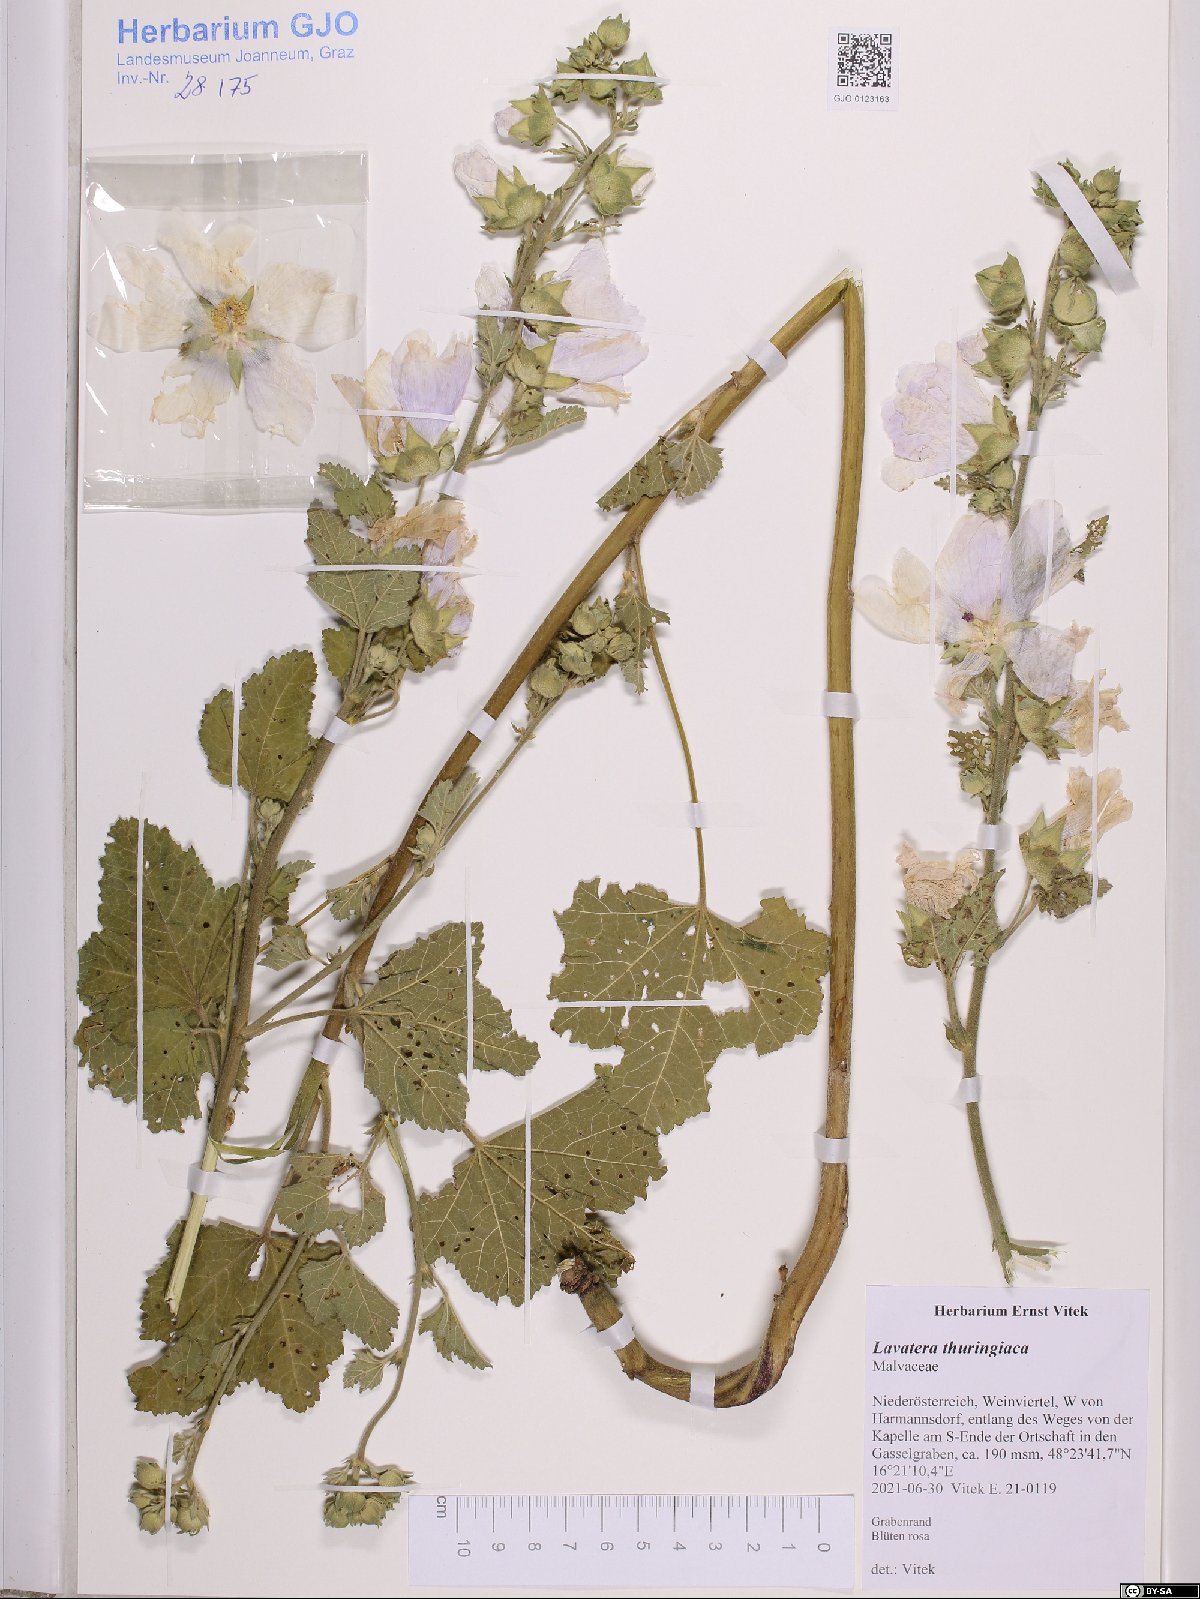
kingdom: Plantae
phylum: Tracheophyta
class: Magnoliopsida
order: Malvales
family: Malvaceae
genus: Malva
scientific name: Malva thuringiaca
